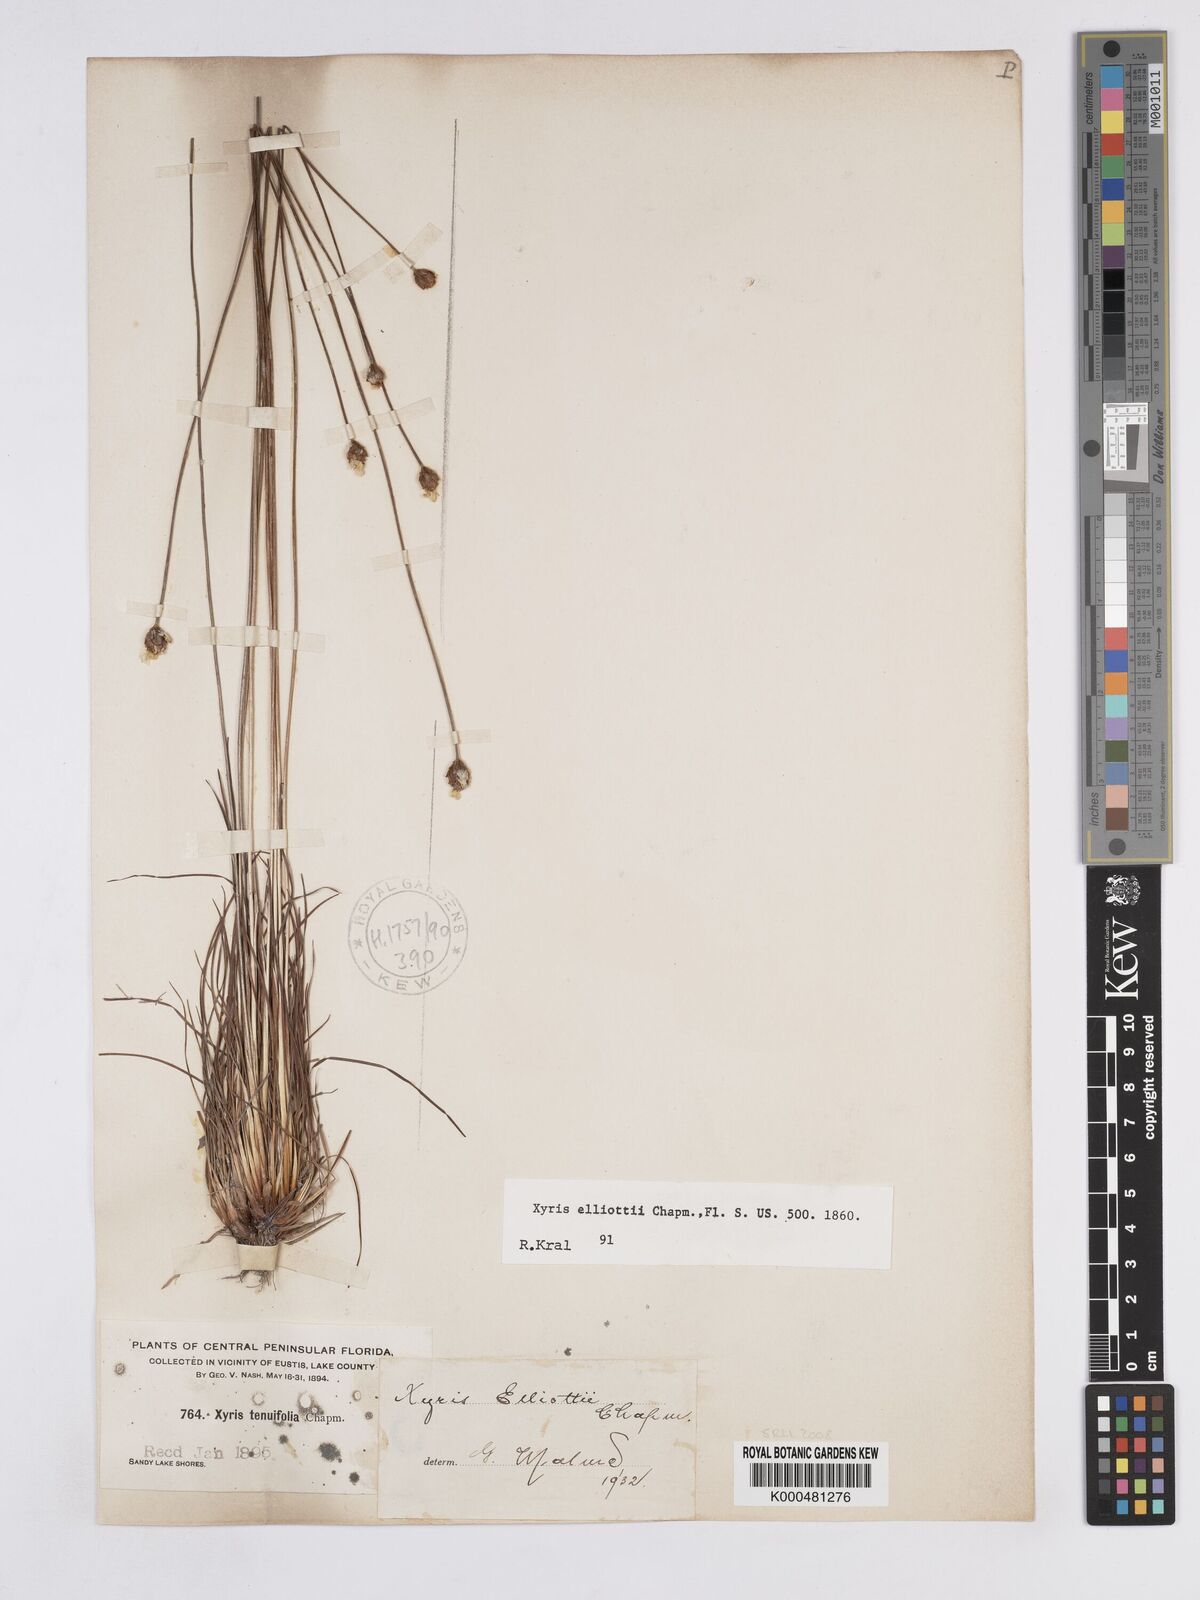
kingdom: Plantae
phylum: Tracheophyta
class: Liliopsida
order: Poales
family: Xyridaceae
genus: Xyris
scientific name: Xyris elliottii
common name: Elliot's yelloweyed grass
